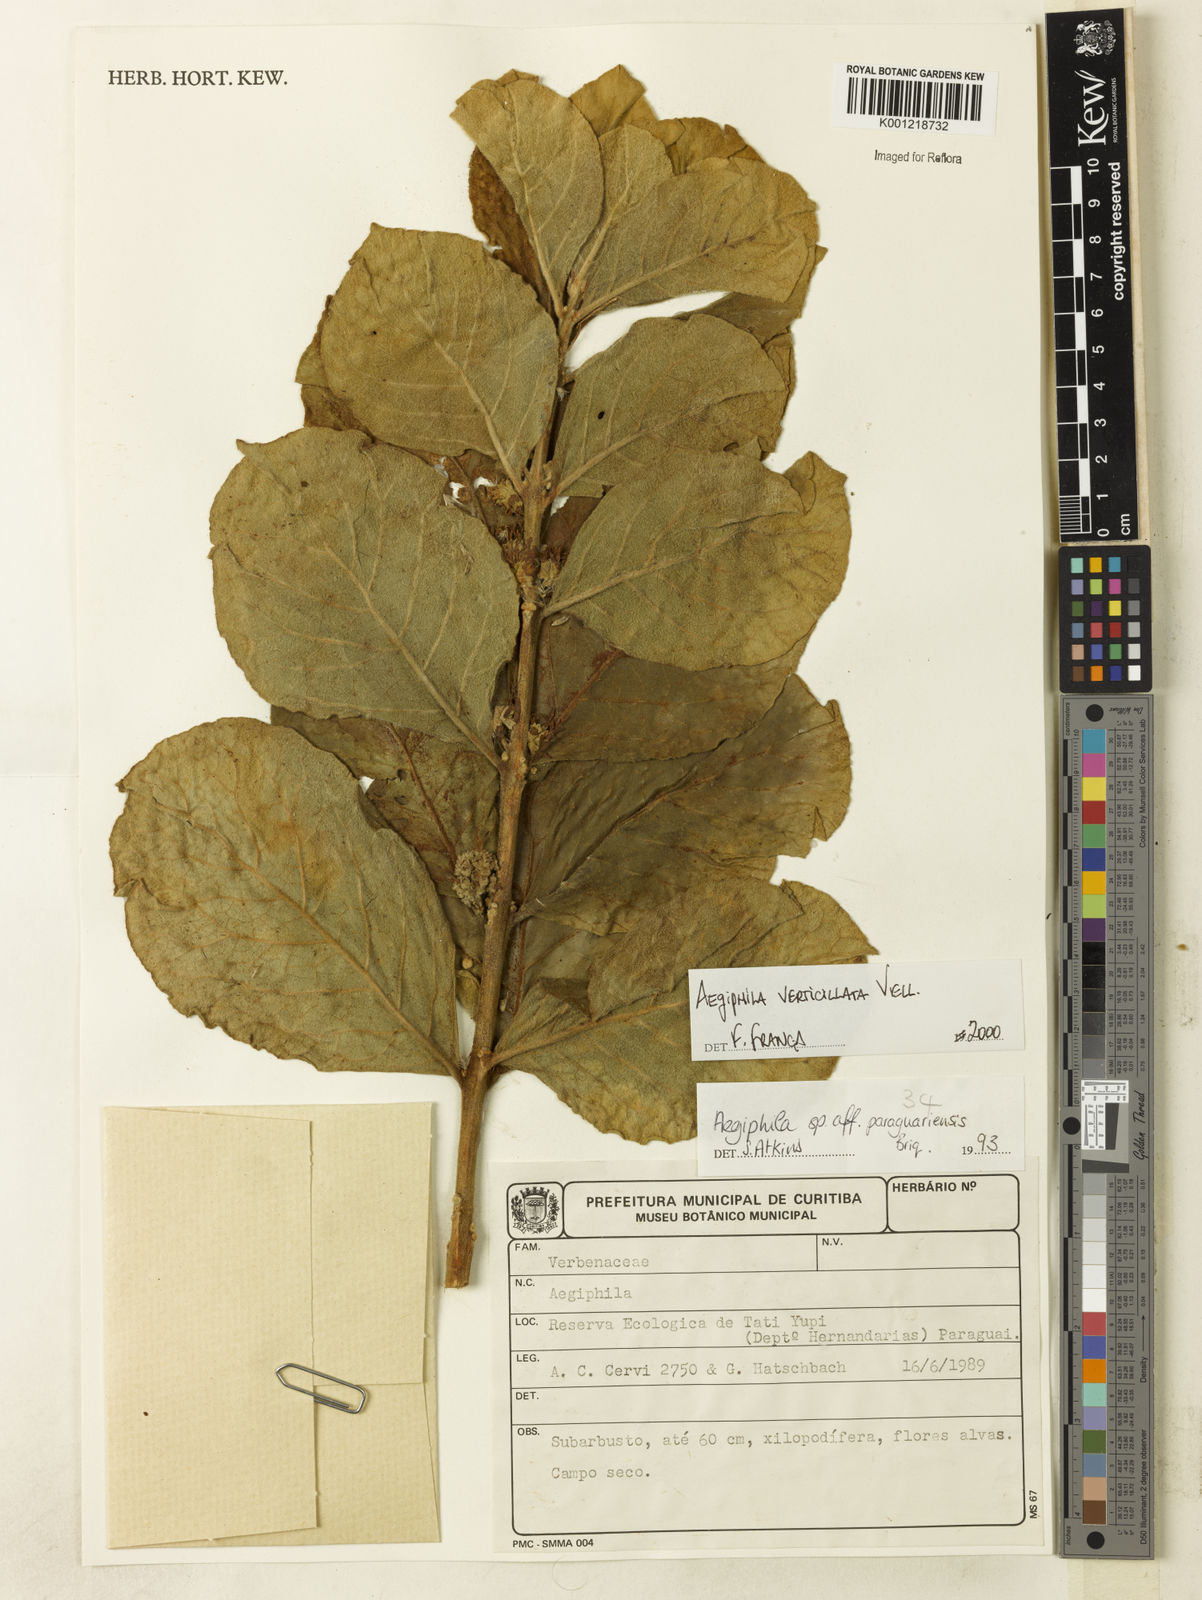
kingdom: Plantae
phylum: Tracheophyta
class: Magnoliopsida
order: Lamiales
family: Lamiaceae
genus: Aegiphila
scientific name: Aegiphila verticillata
